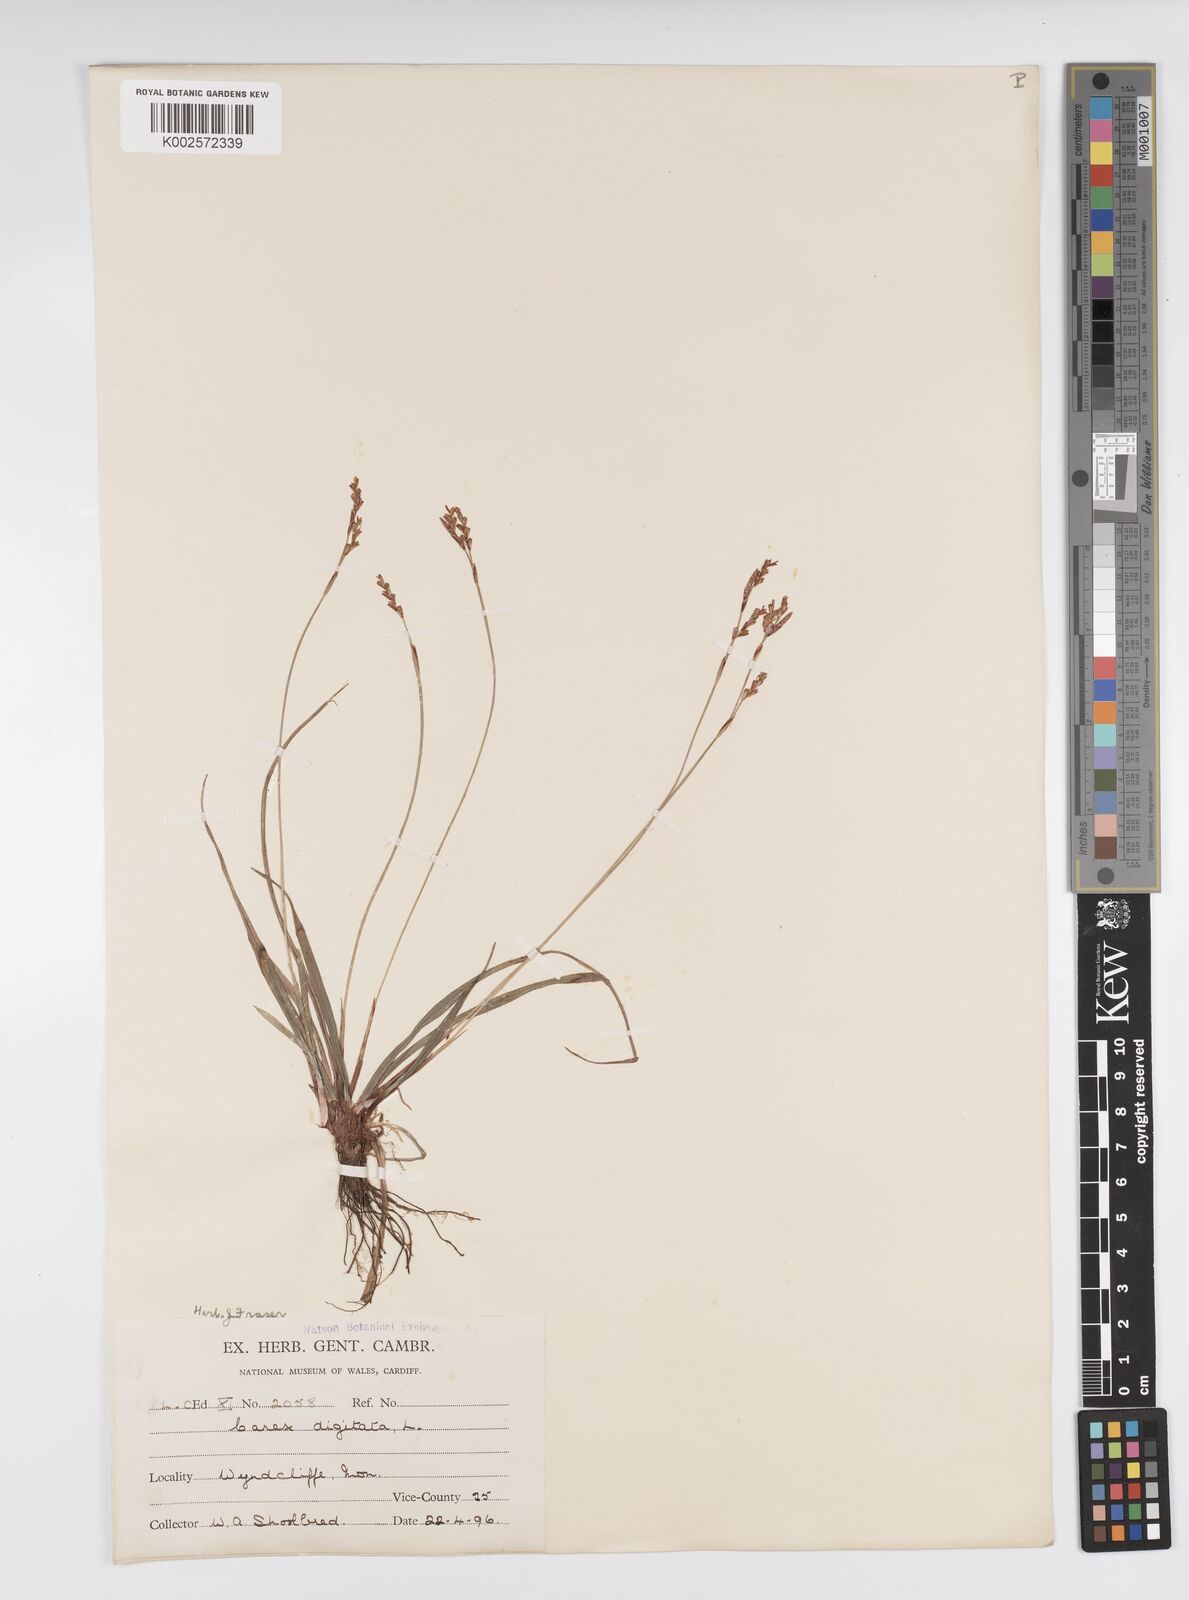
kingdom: Plantae
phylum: Tracheophyta
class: Liliopsida
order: Poales
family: Cyperaceae
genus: Carex
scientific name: Carex digitata
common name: Fingered sedge
